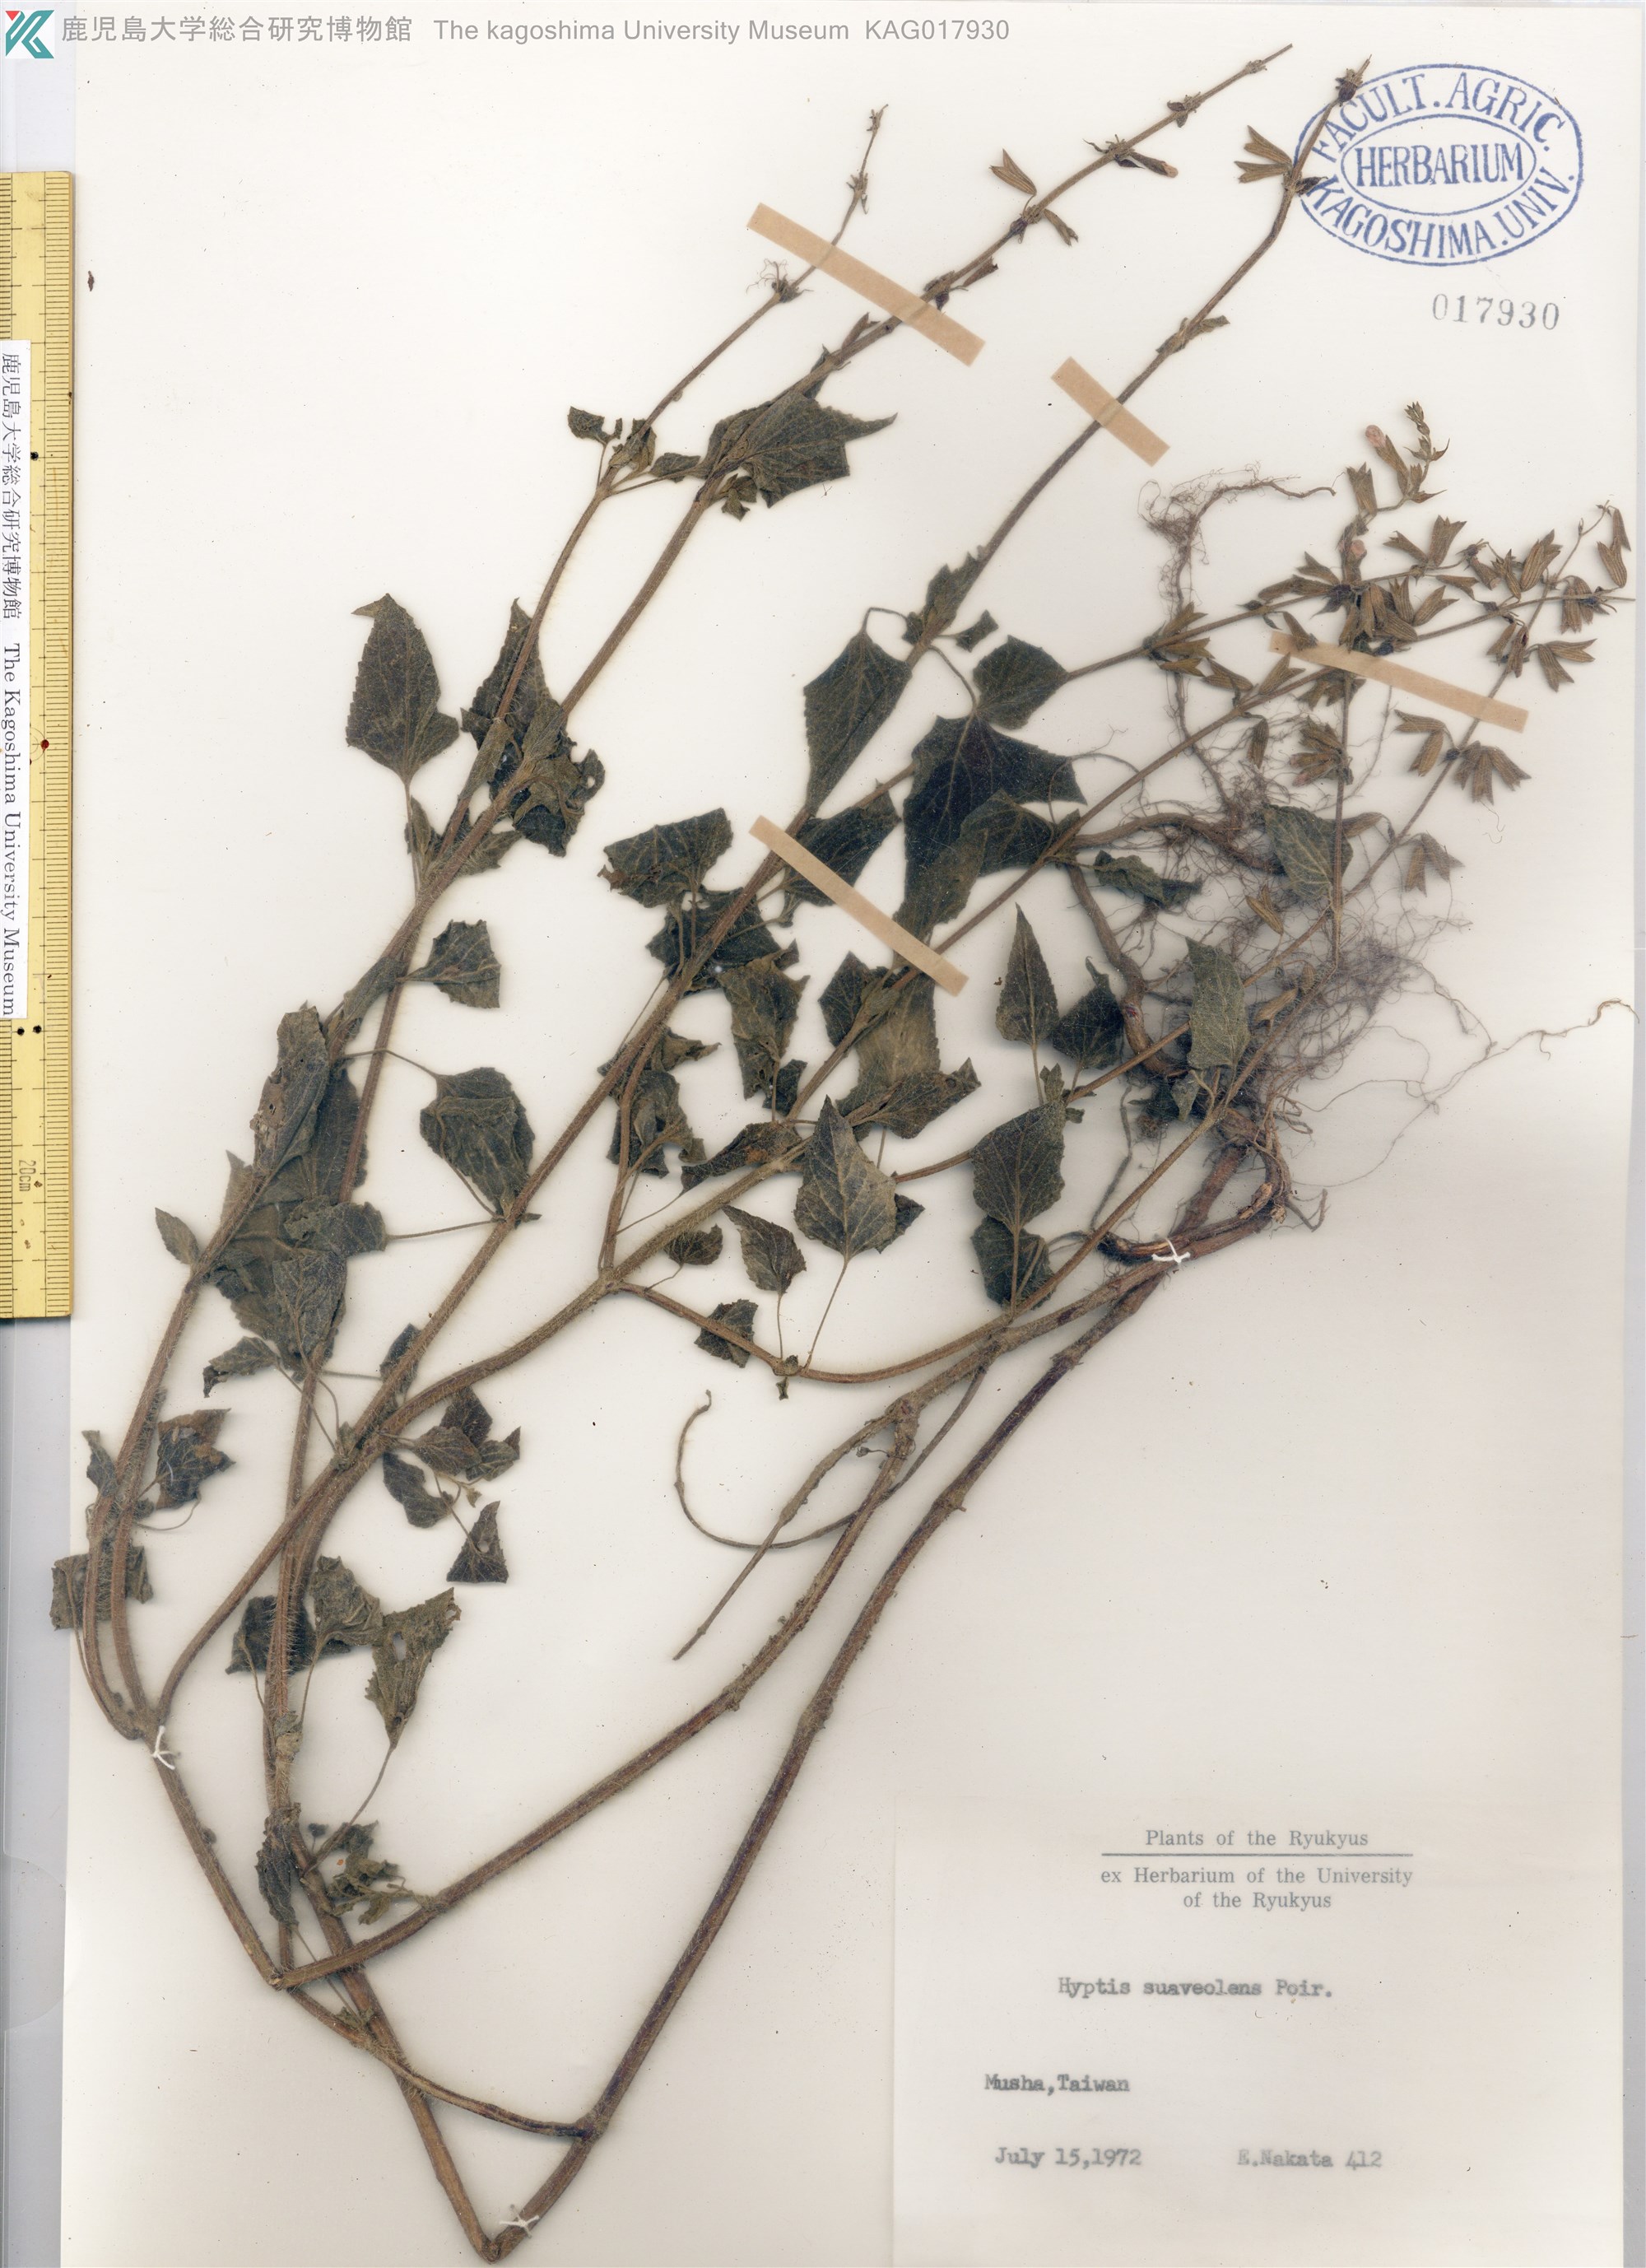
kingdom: Plantae
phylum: Tracheophyta
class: Magnoliopsida
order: Lamiales
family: Lamiaceae
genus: Mesosphaerum
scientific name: Mesosphaerum suaveolens
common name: Pignut
